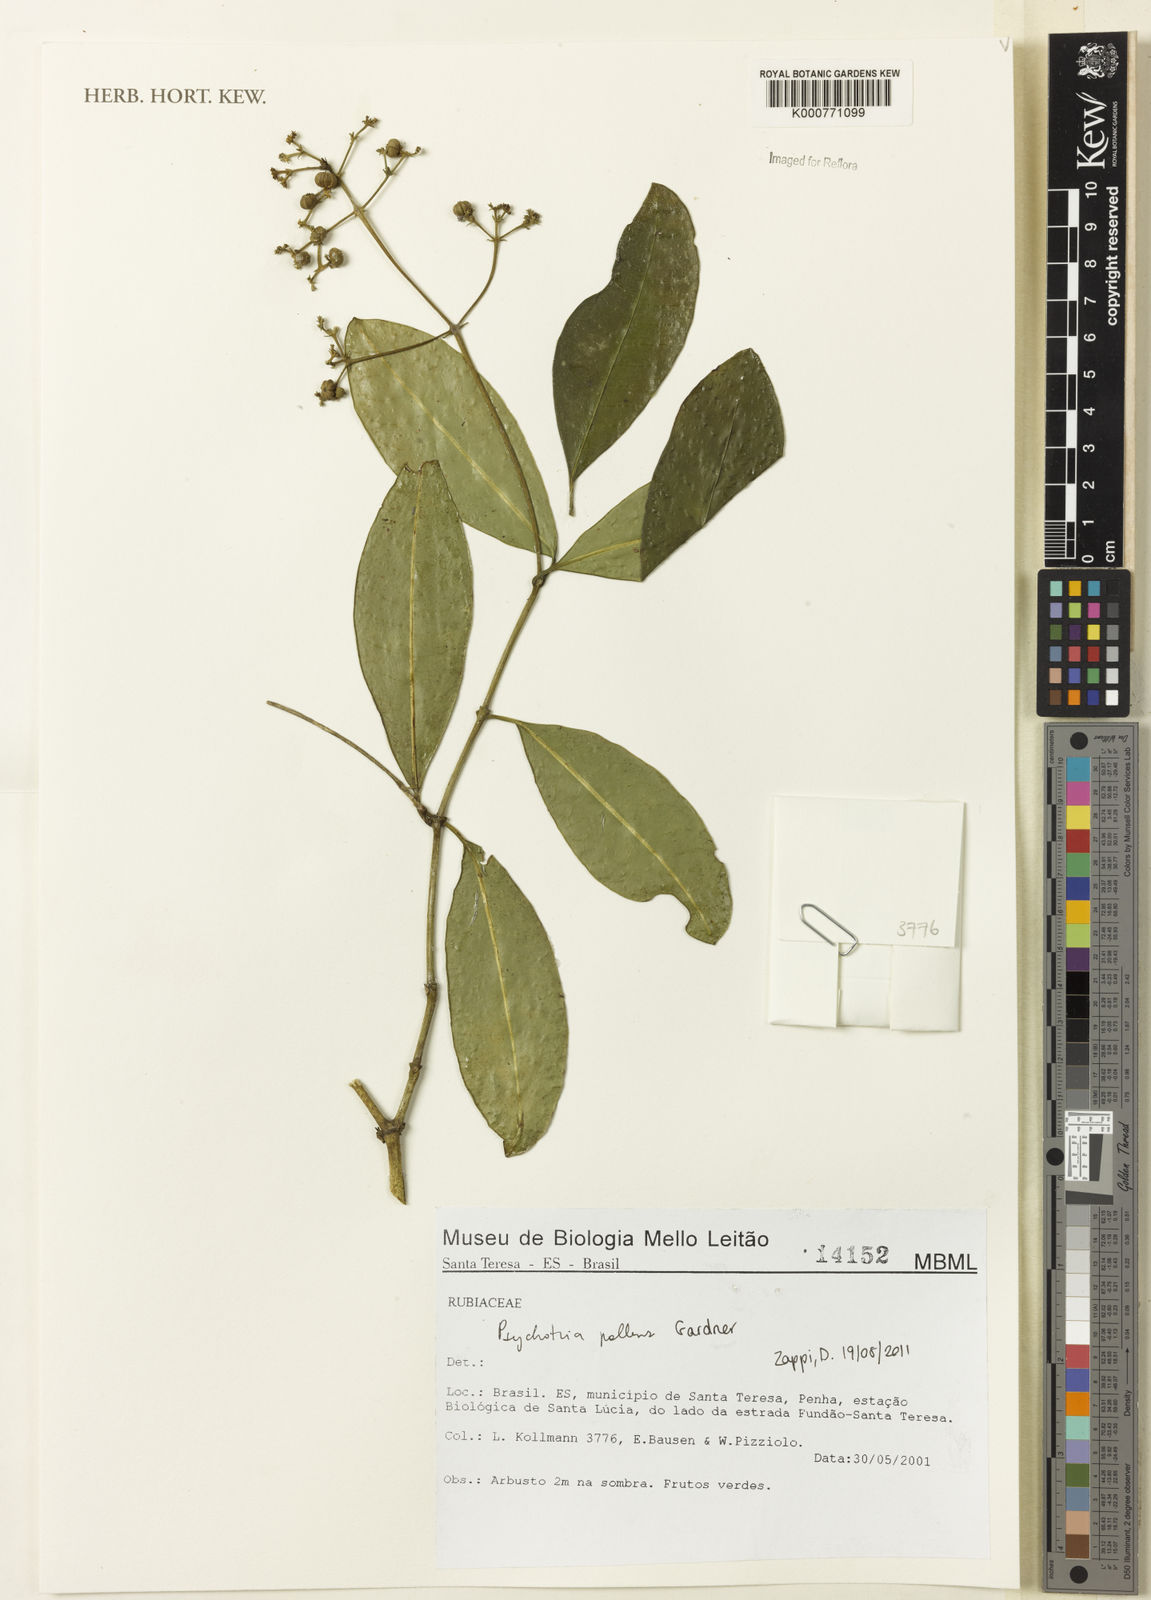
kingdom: Plantae
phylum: Tracheophyta
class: Magnoliopsida
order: Gentianales
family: Rubiaceae
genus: Psychotria
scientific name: Psychotria pallens
